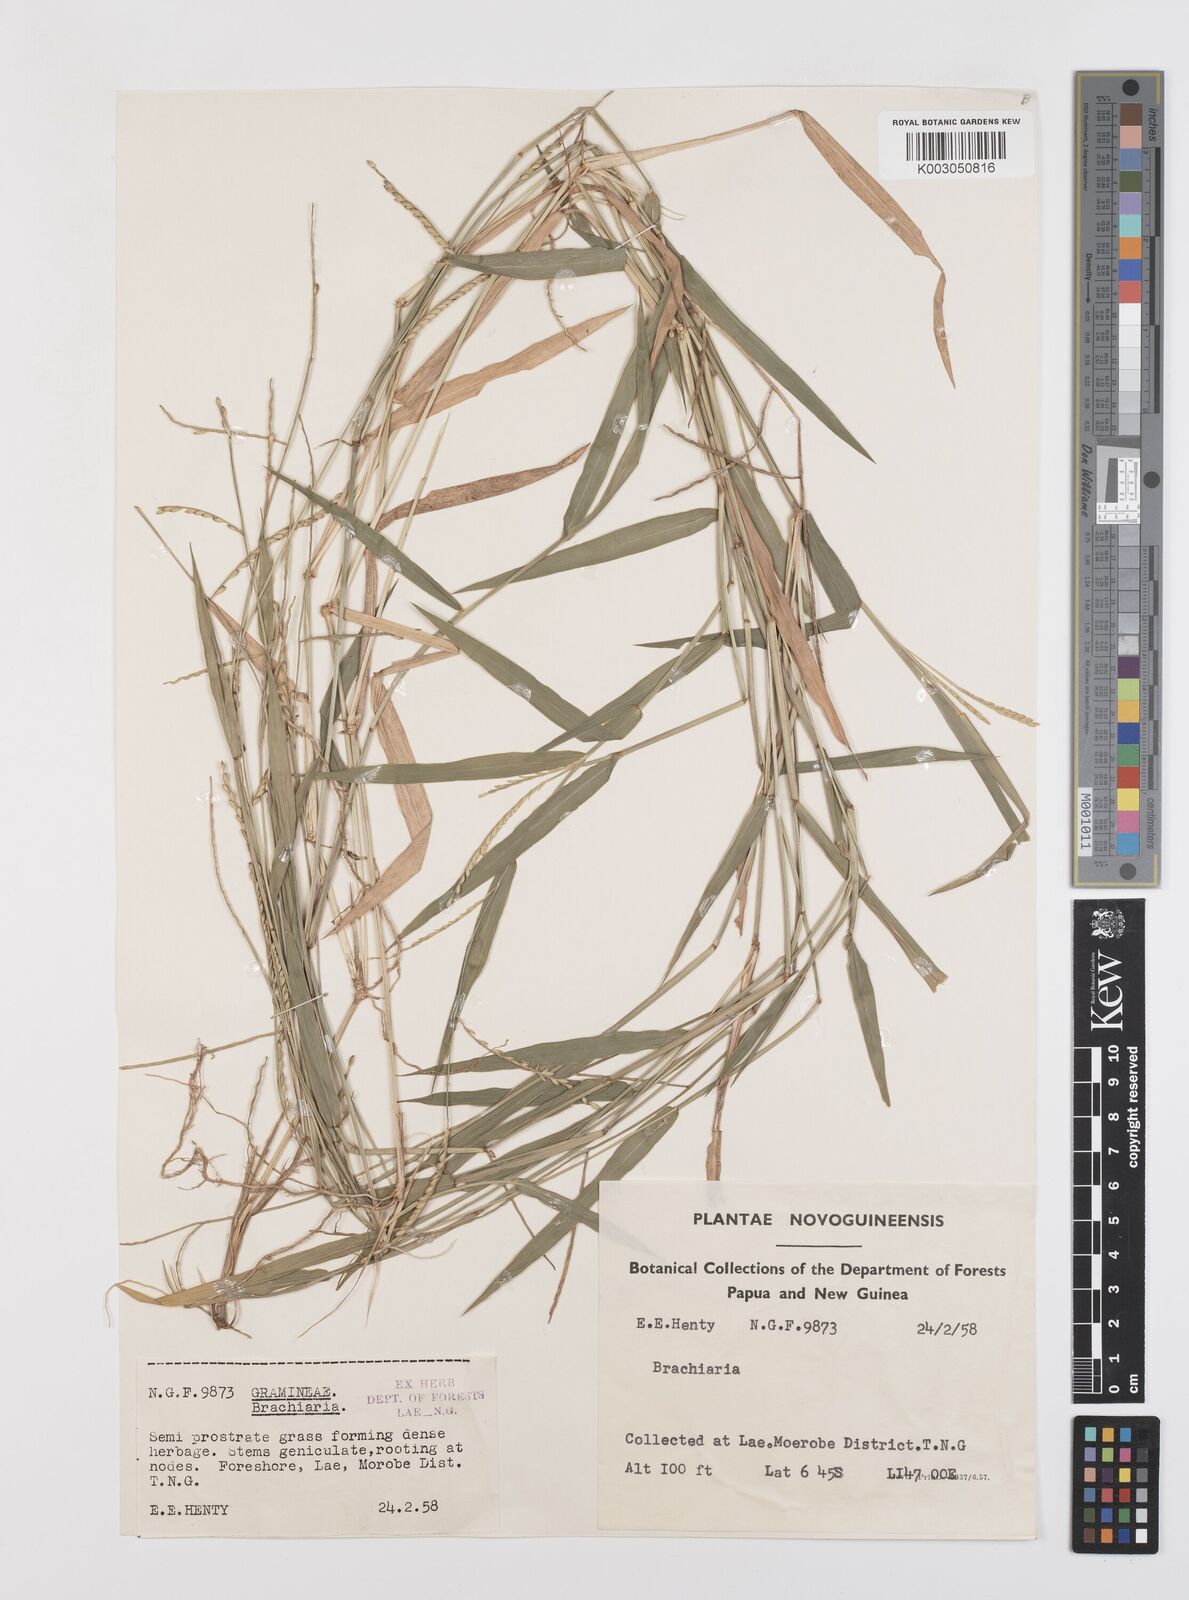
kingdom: Plantae
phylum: Tracheophyta
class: Liliopsida
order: Poales
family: Poaceae
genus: Urochloa
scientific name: Urochloa subquadripara
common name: Armgrass millet
